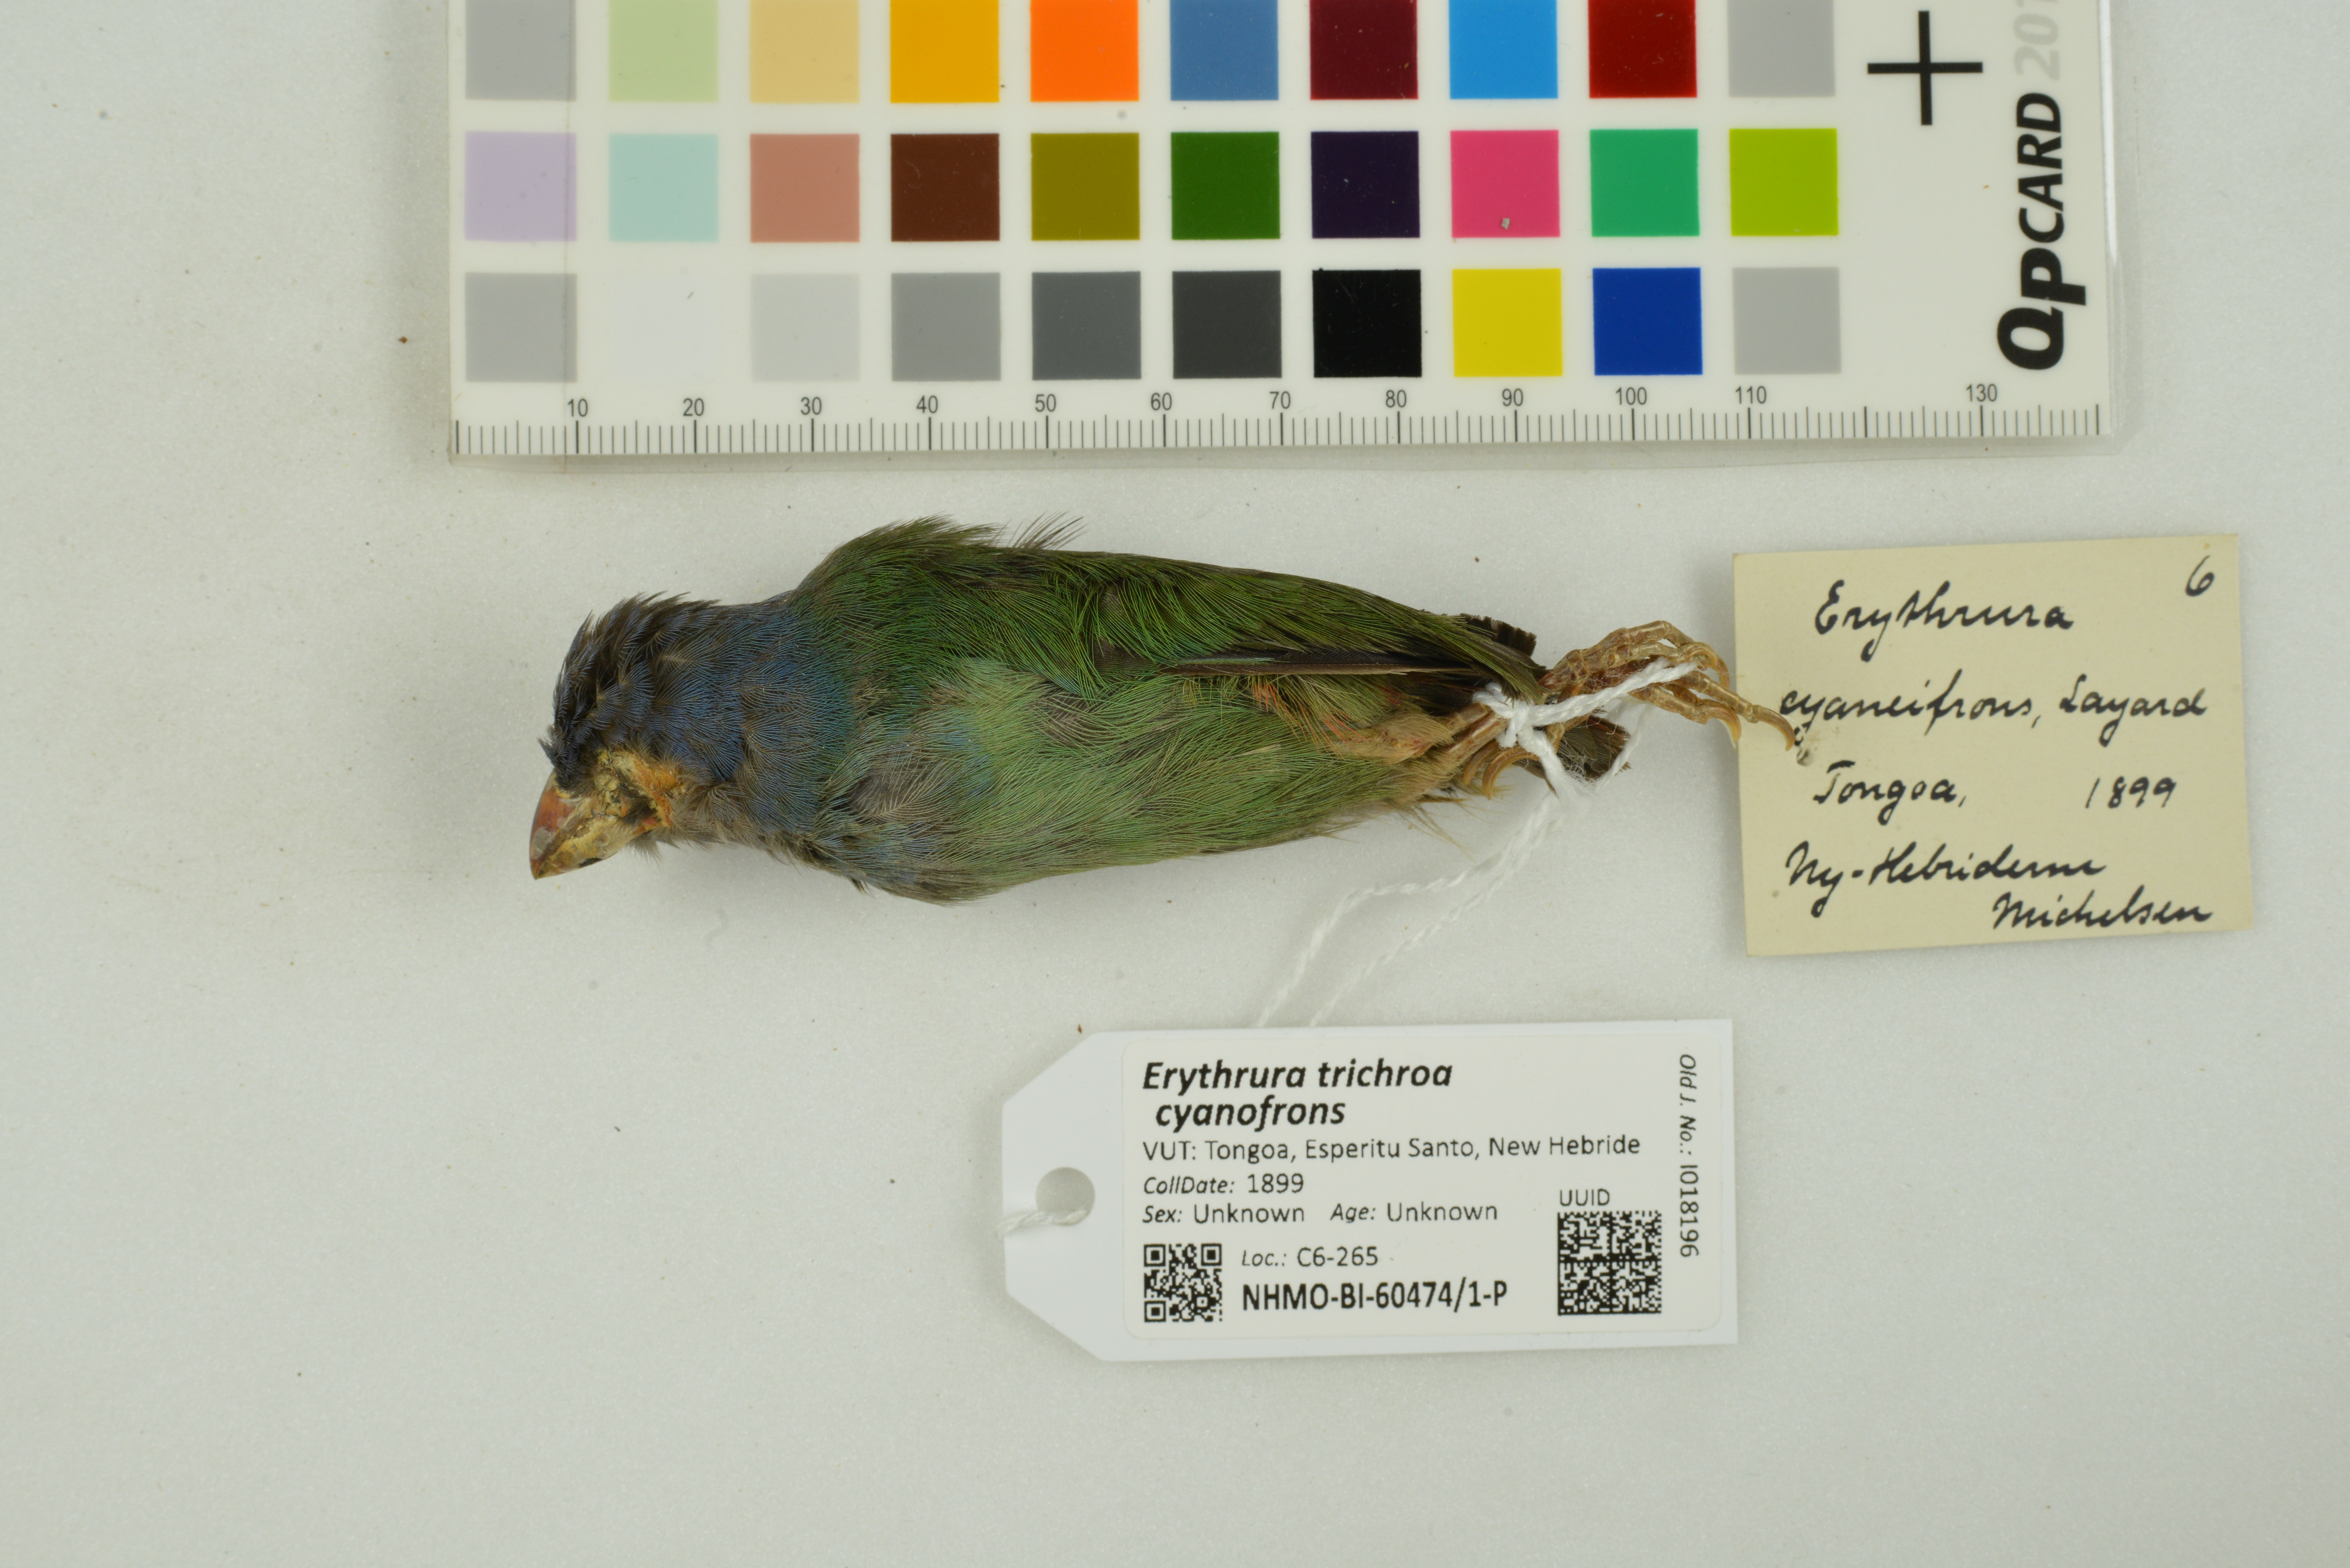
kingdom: Animalia
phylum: Chordata
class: Aves
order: Passeriformes
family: Estrildidae
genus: Erythrura
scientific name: Erythrura trichroa
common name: Blue-faced parrotfinch
